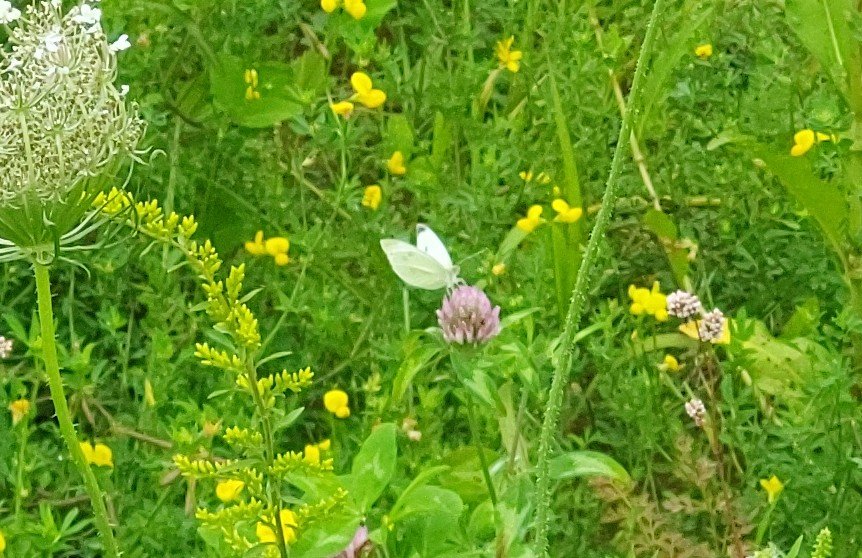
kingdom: Animalia
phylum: Arthropoda
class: Insecta
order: Lepidoptera
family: Pieridae
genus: Pieris
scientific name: Pieris rapae
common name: Cabbage White
